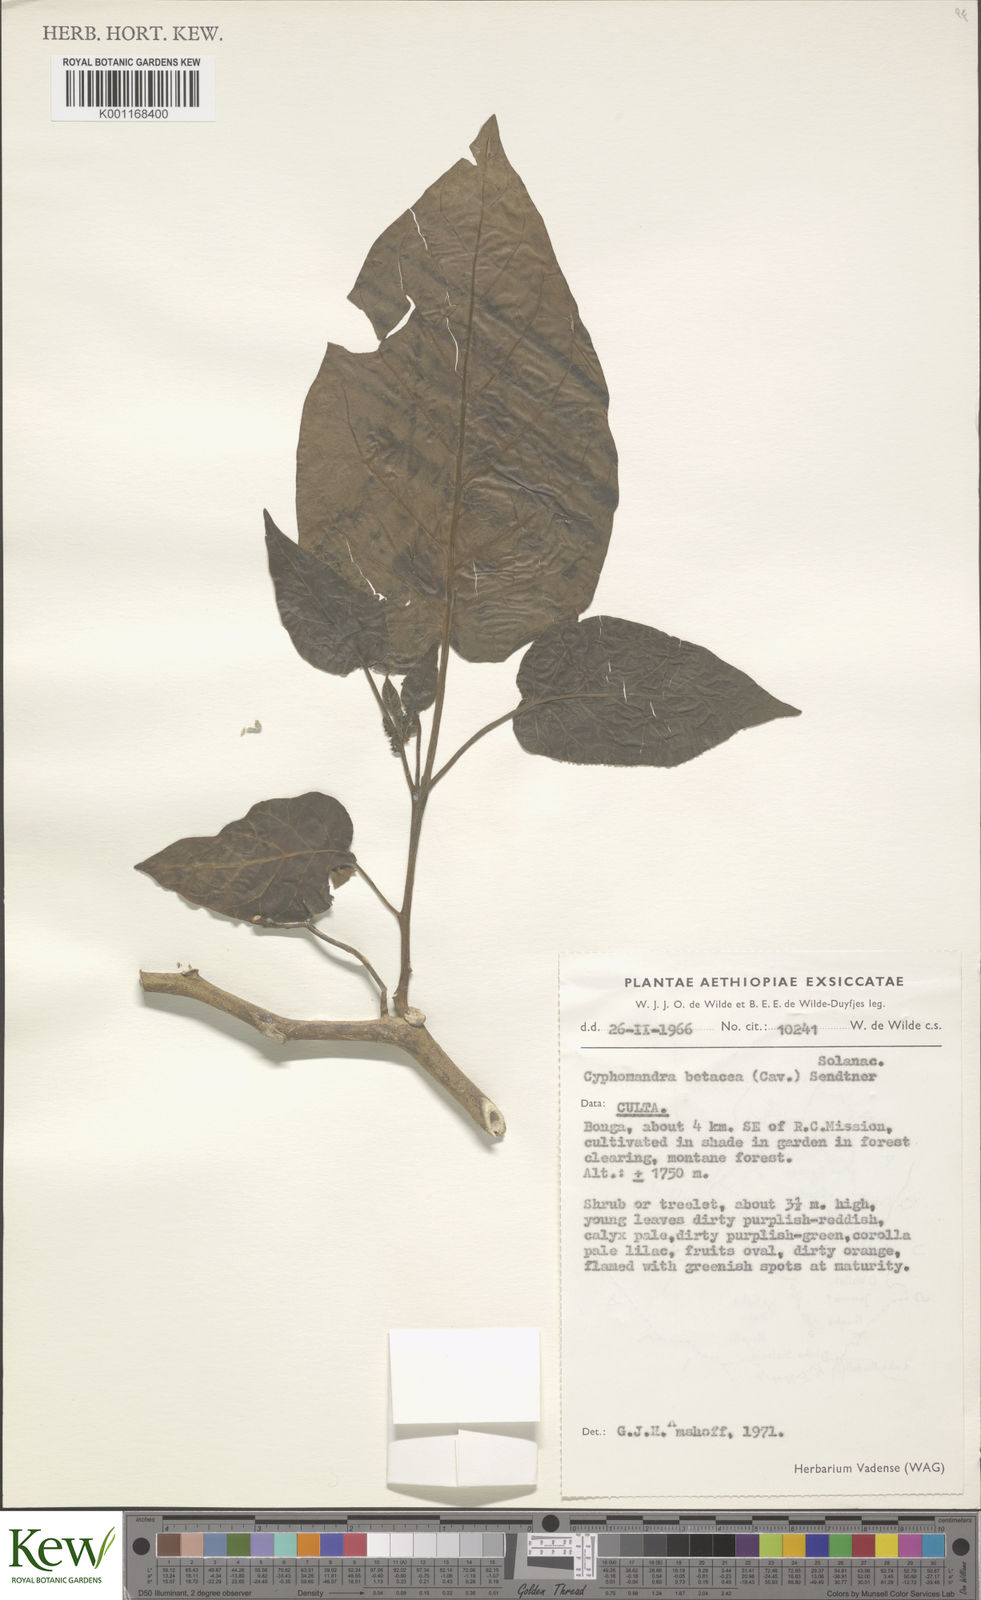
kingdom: Plantae
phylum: Tracheophyta
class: Magnoliopsida
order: Solanales
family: Solanaceae
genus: Solanum
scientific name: Solanum betaceum
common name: Tamarillo
